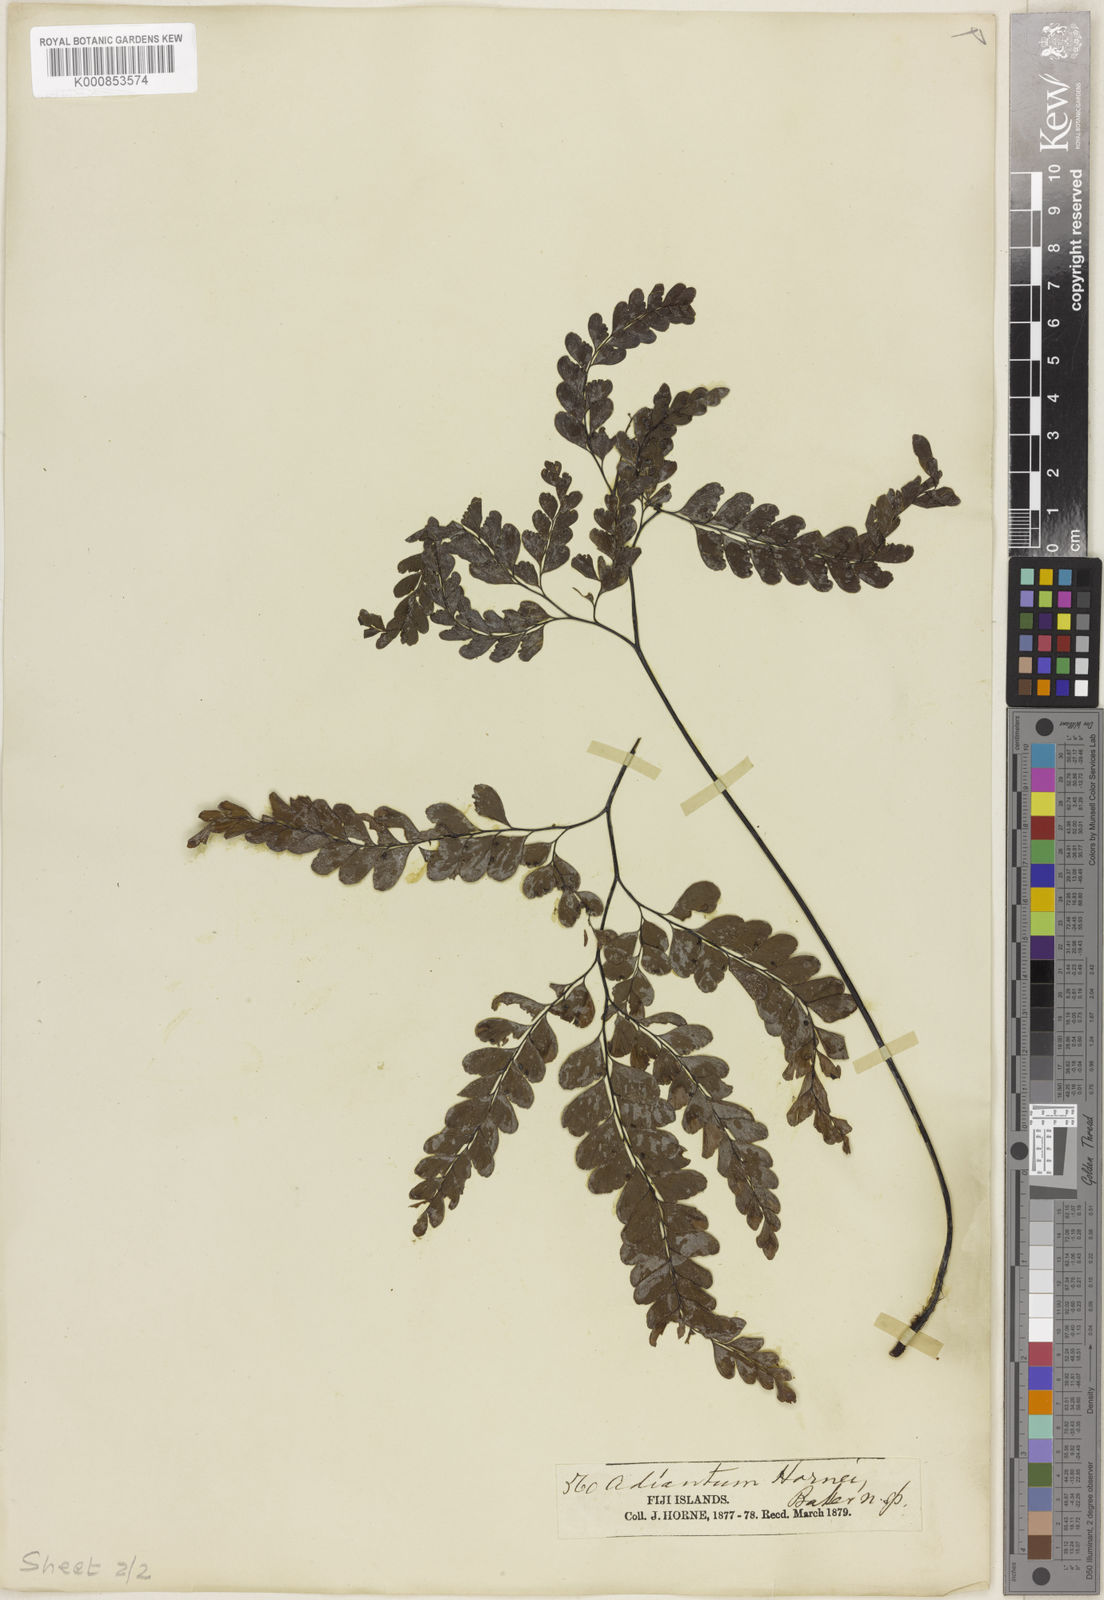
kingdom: Plantae
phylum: Tracheophyta
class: Polypodiopsida
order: Polypodiales
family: Pteridaceae
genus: Adiantum
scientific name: Adiantum hornei
